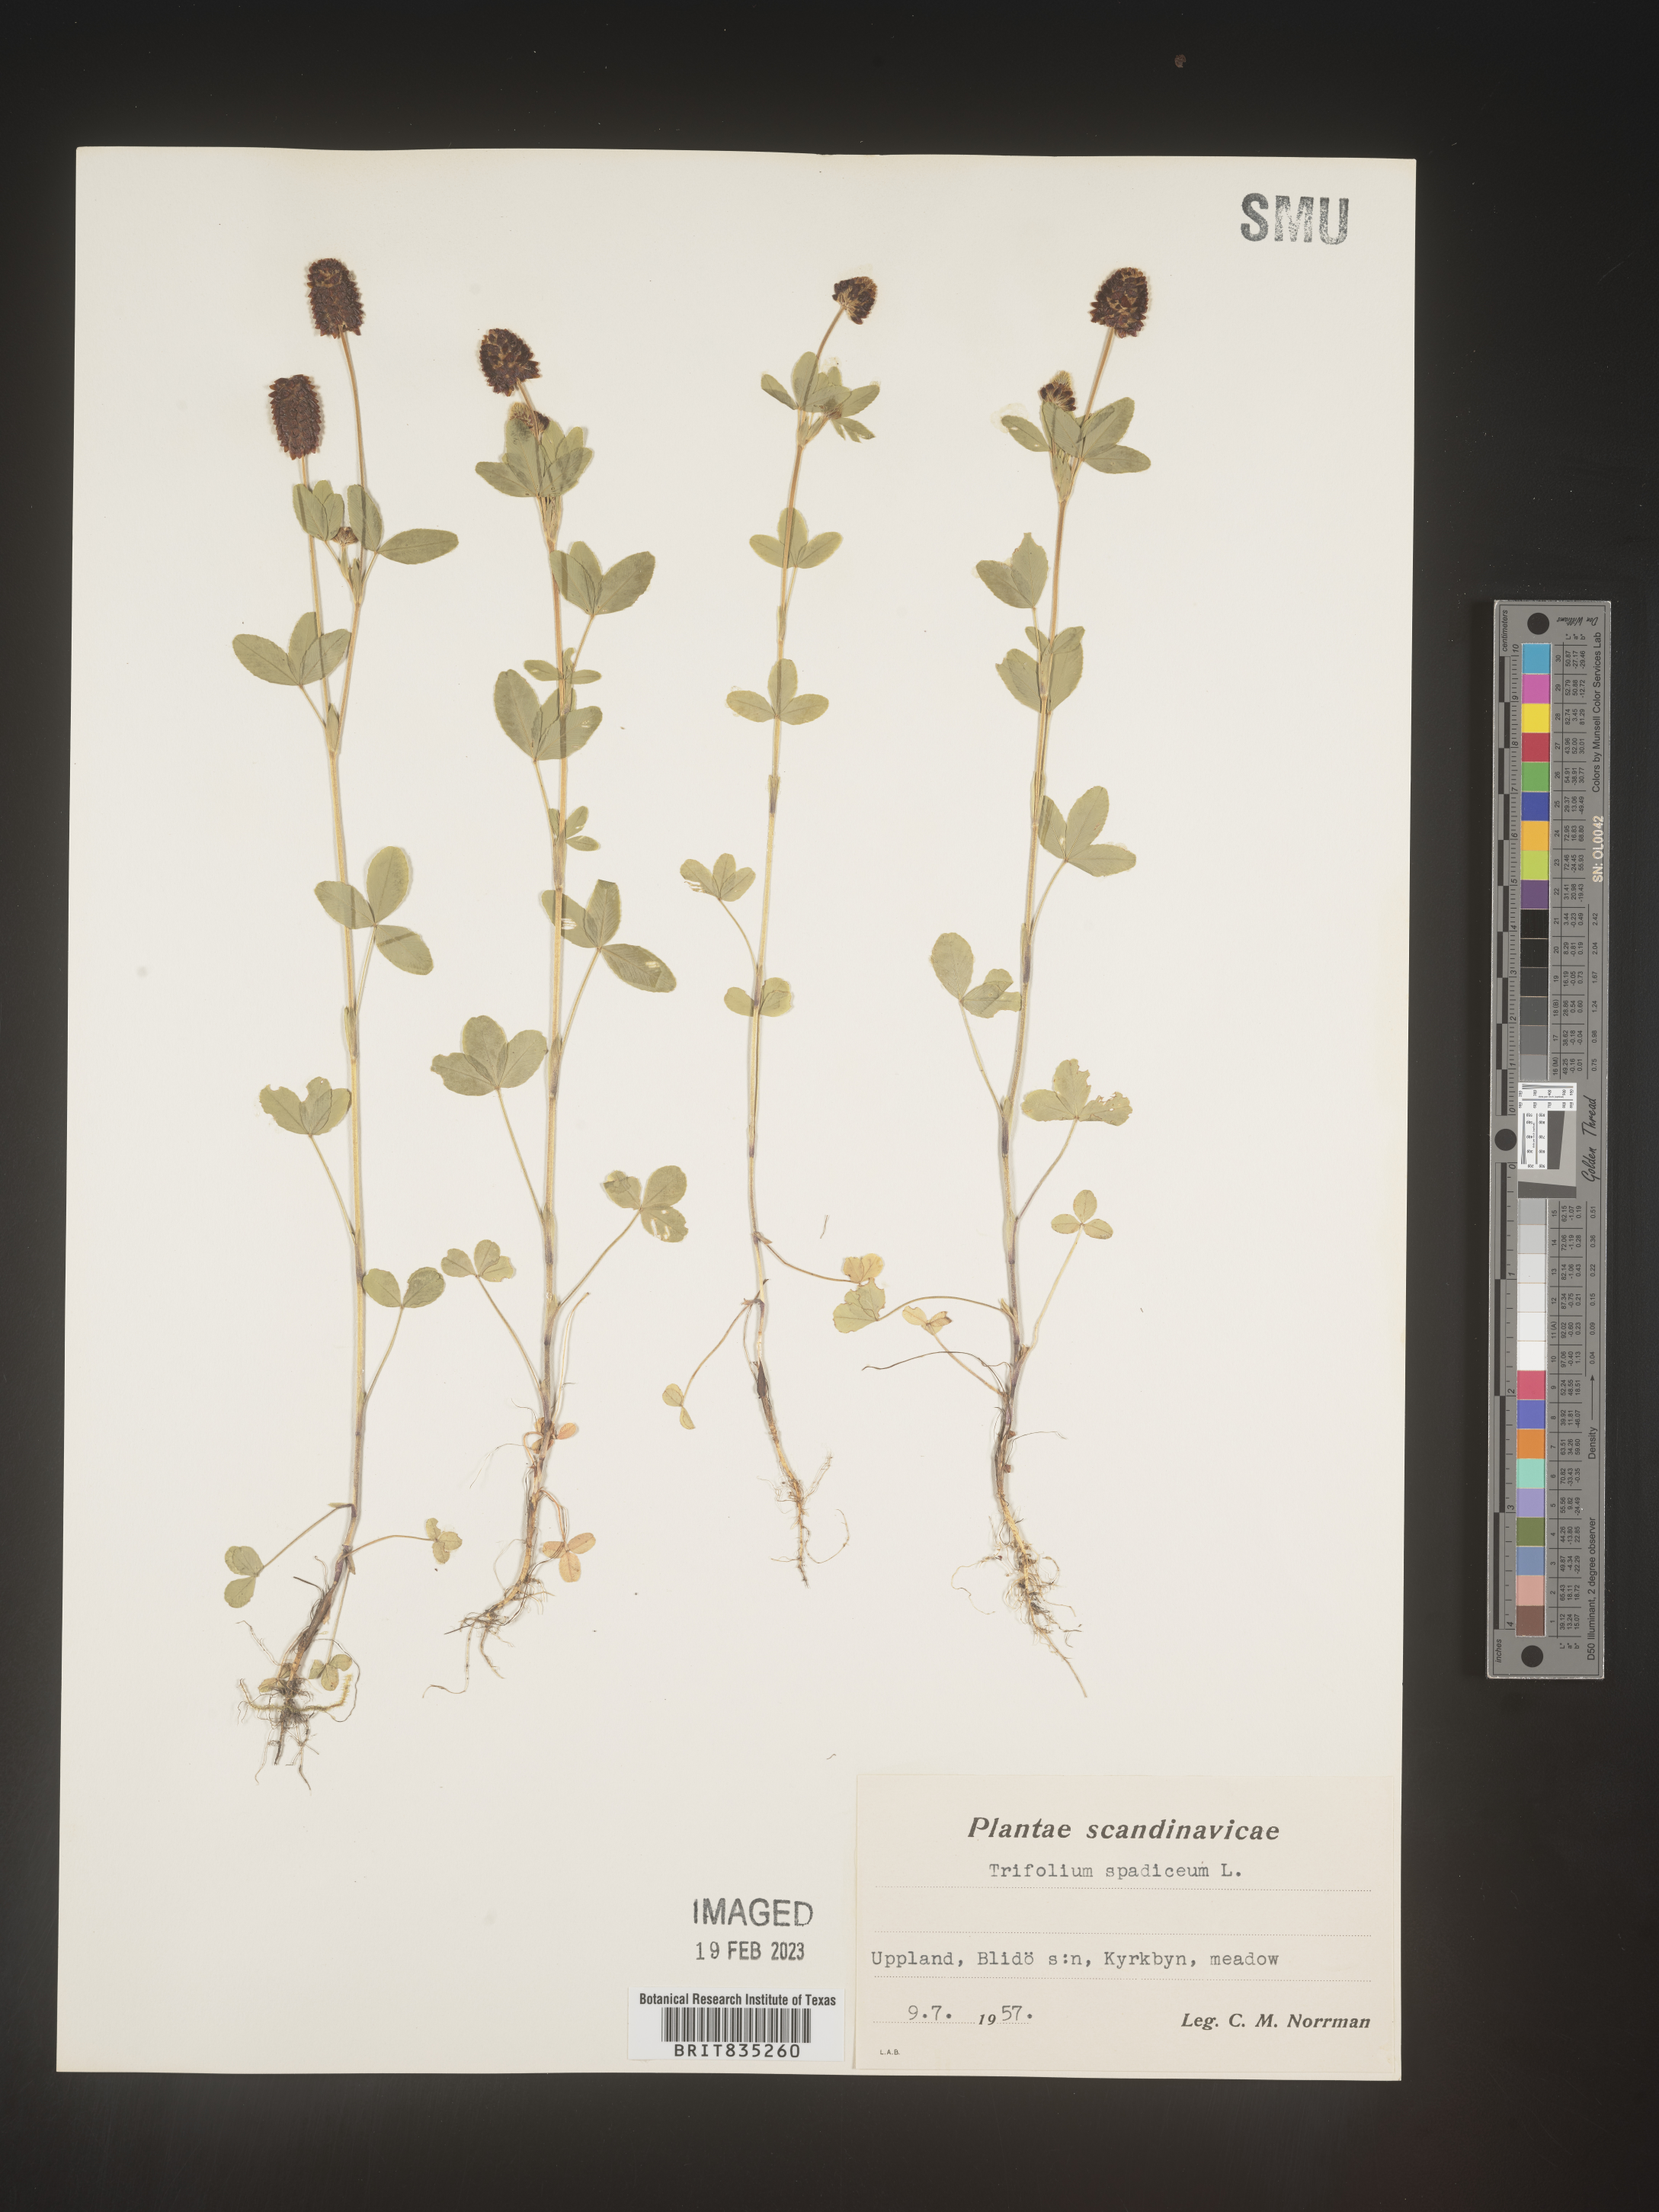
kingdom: Plantae
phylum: Tracheophyta
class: Magnoliopsida
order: Fabales
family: Fabaceae
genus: Trifolium
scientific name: Trifolium
